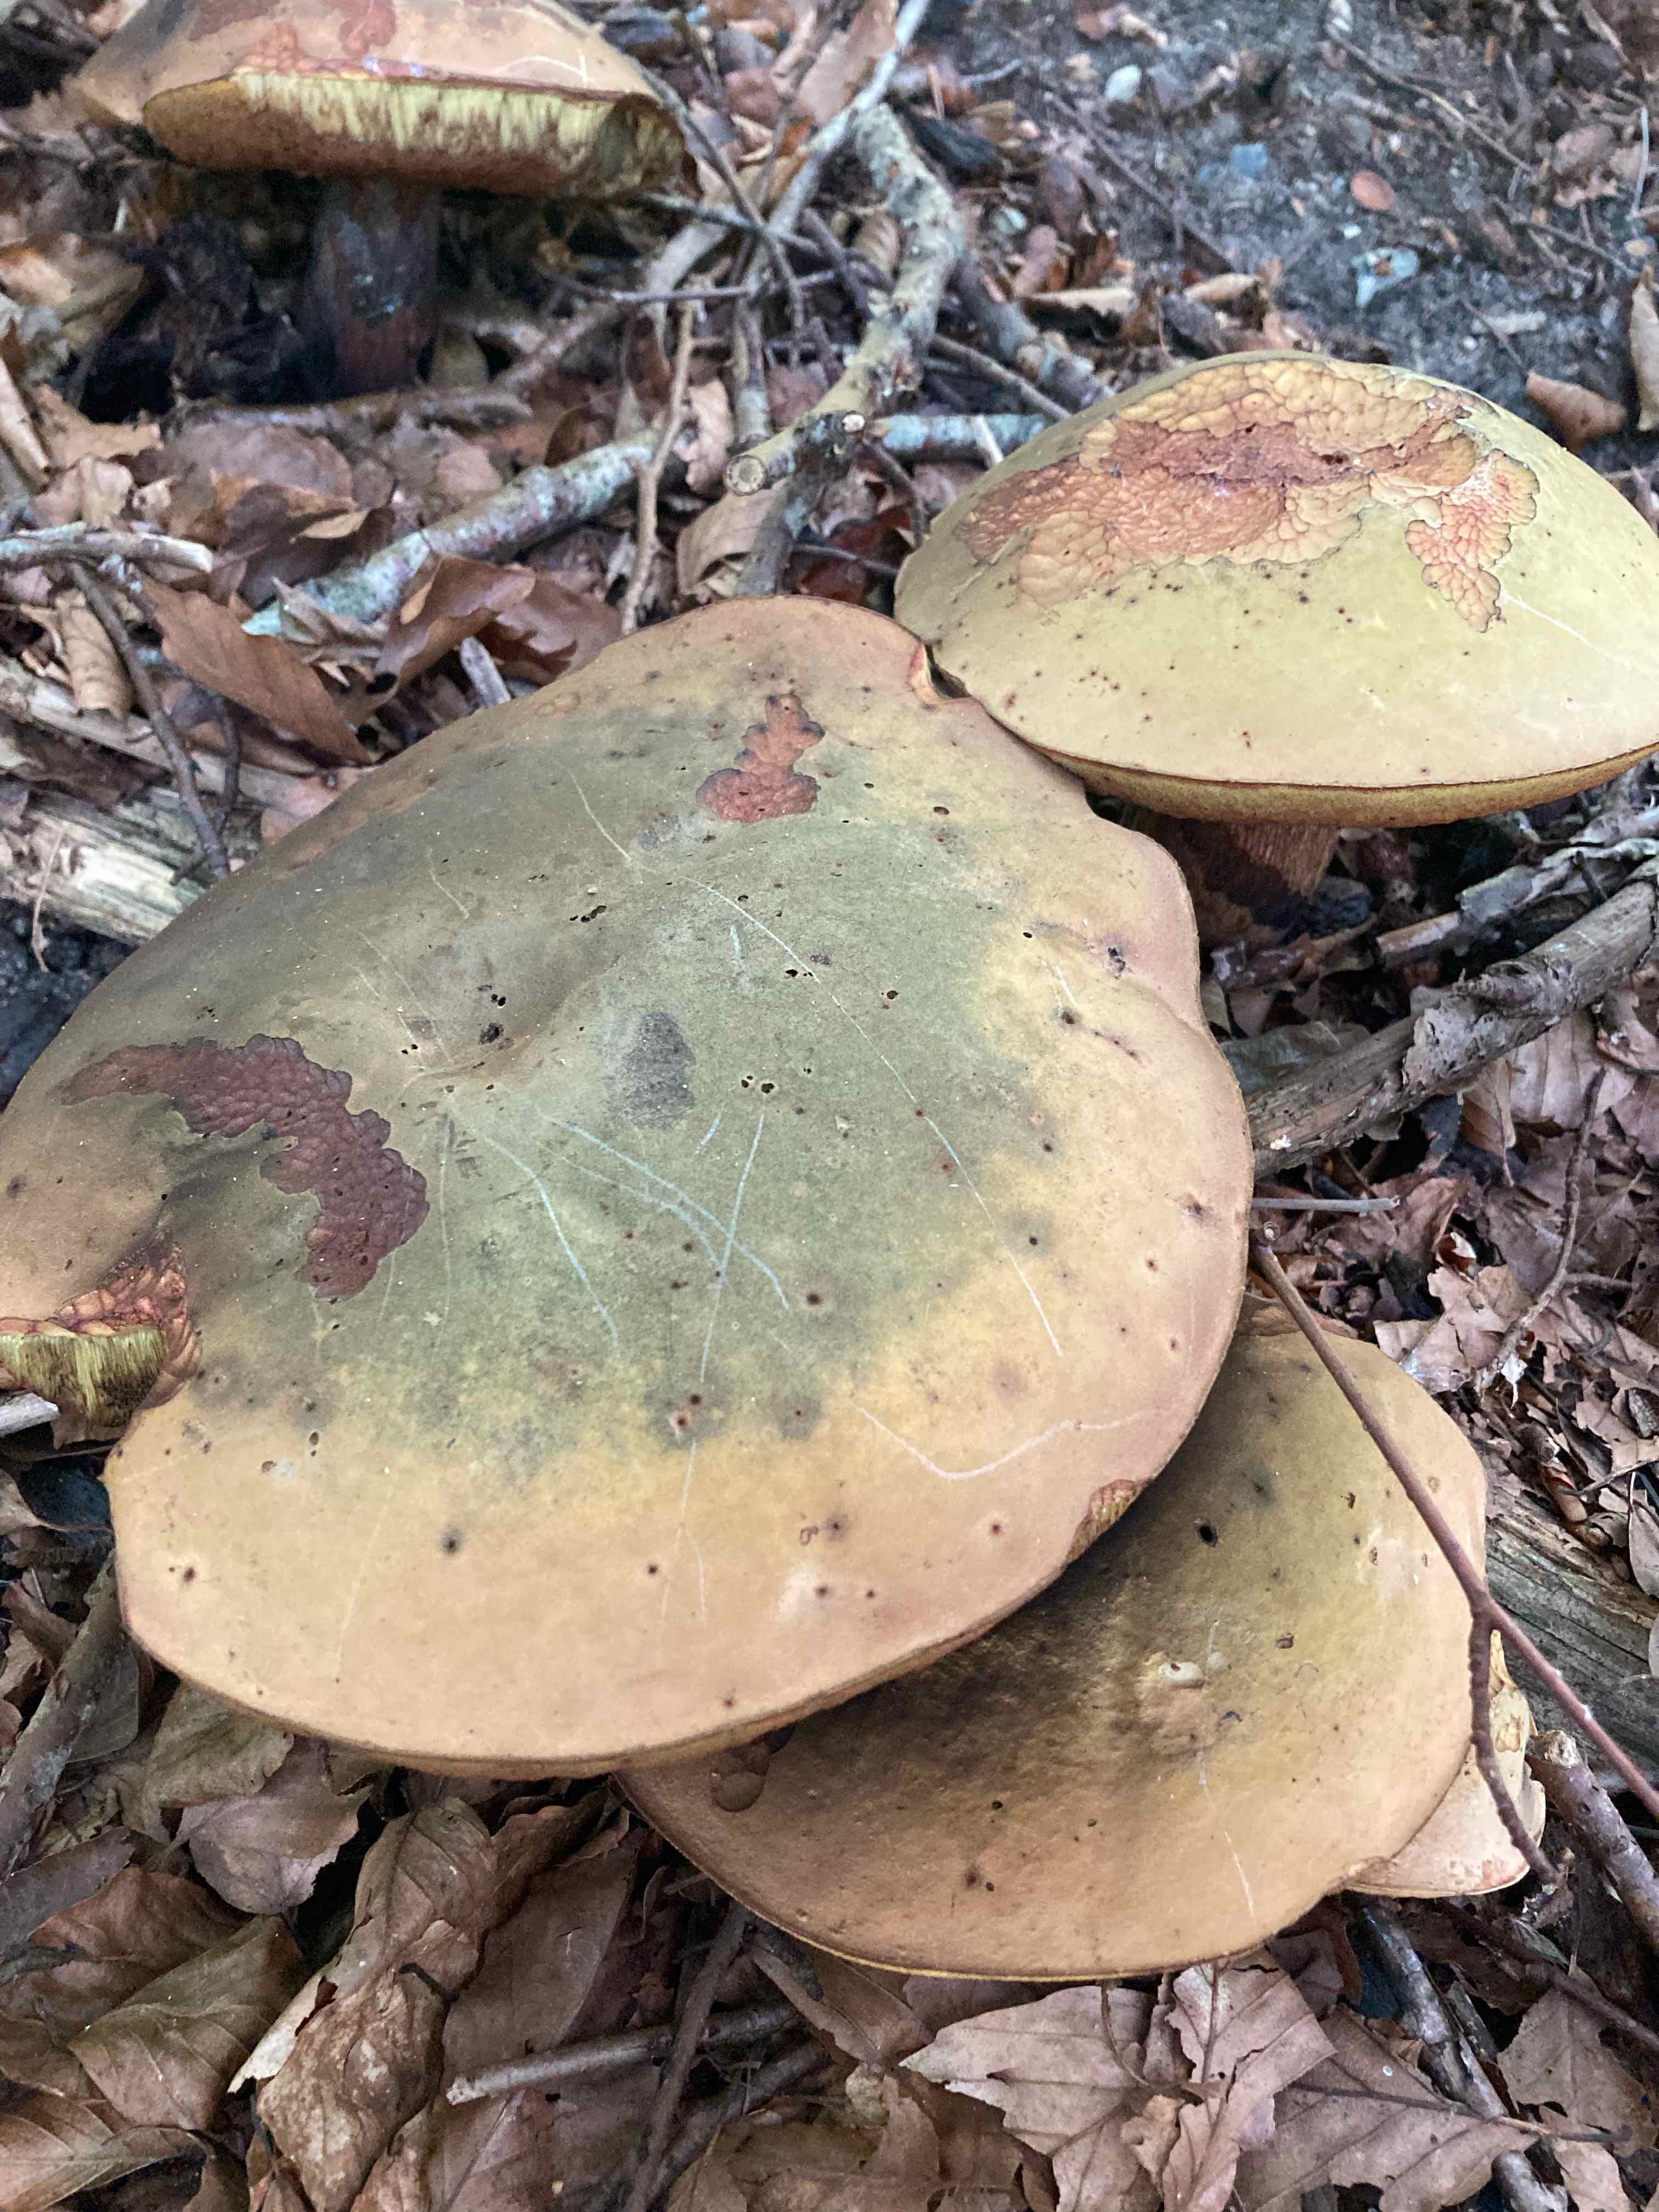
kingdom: Fungi
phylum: Basidiomycota
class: Agaricomycetes
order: Boletales
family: Boletaceae
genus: Suillellus
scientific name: Suillellus luridus
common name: netstokket indigorørhat
